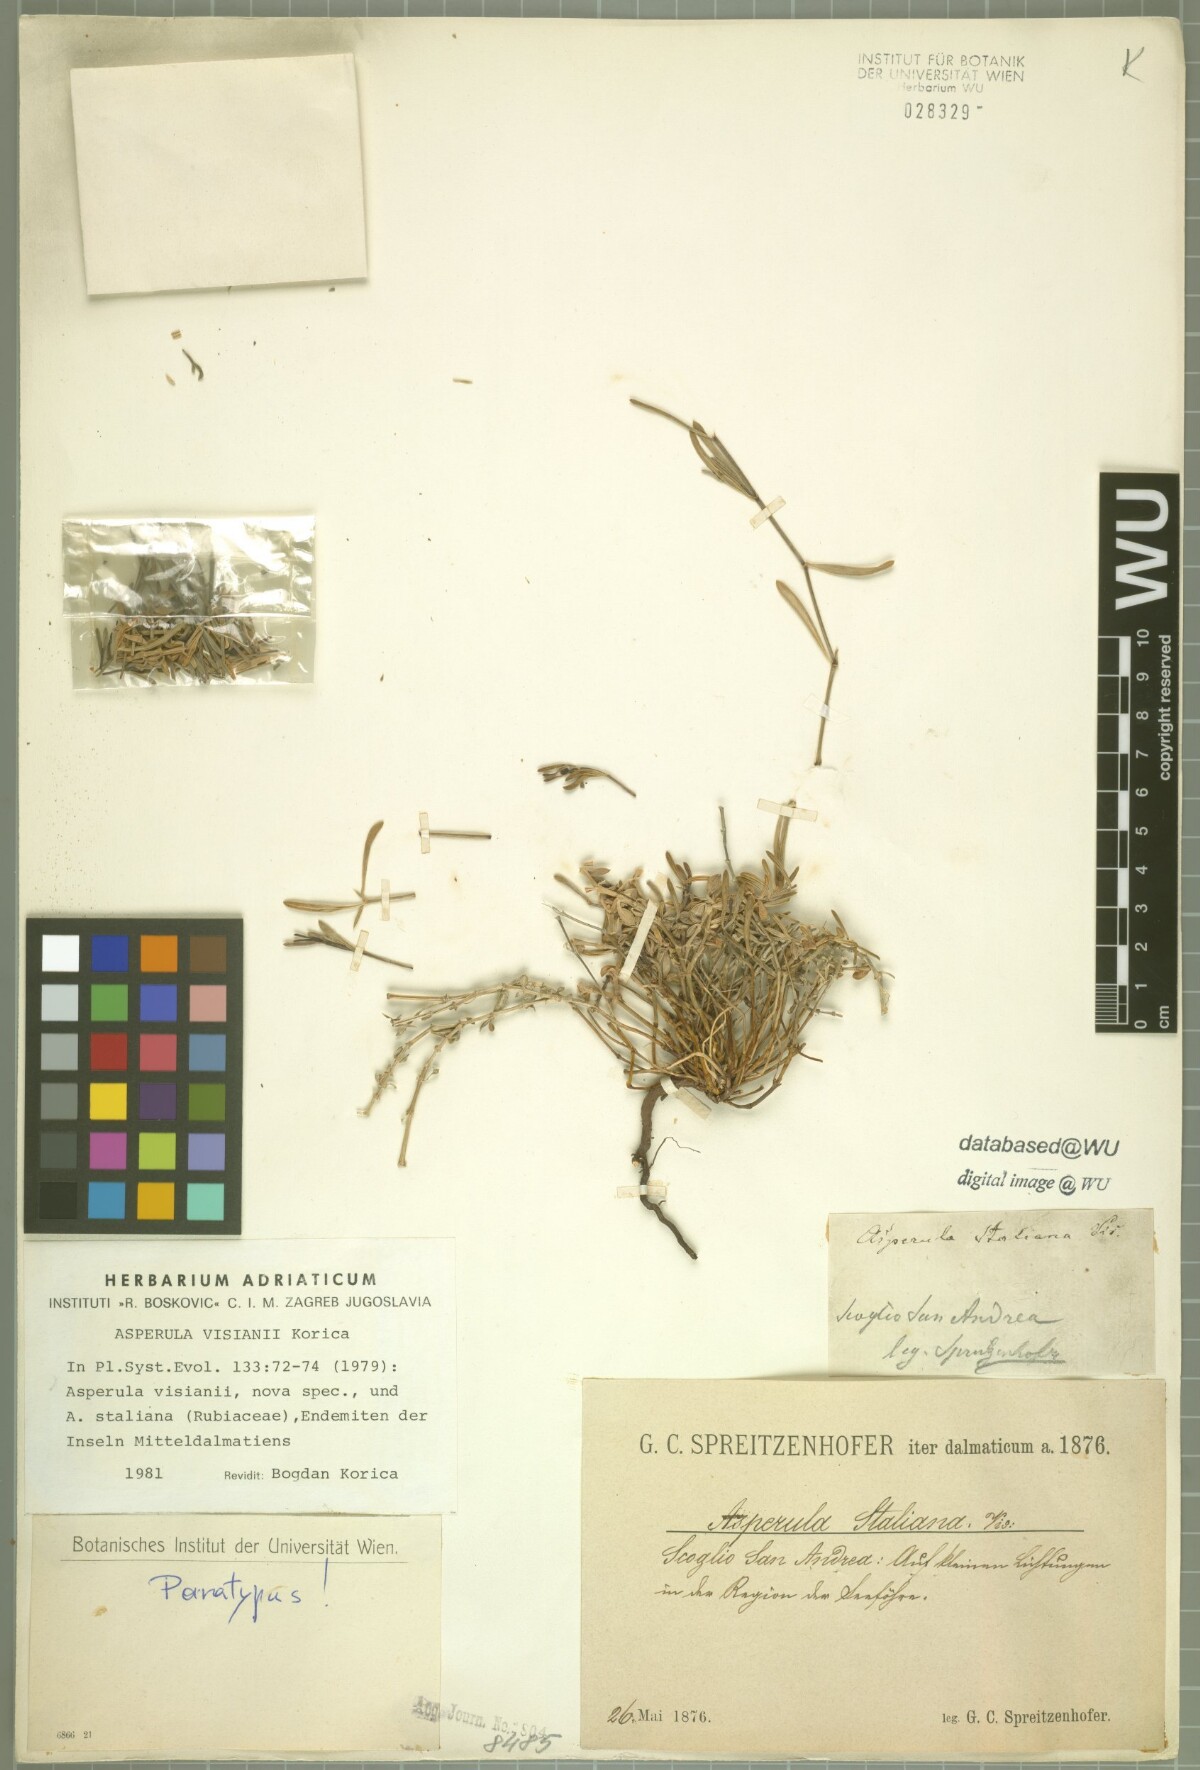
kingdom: Plantae
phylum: Tracheophyta
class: Magnoliopsida
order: Gentianales
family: Rubiaceae
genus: Cynanchica
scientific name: Cynanchica visianii
